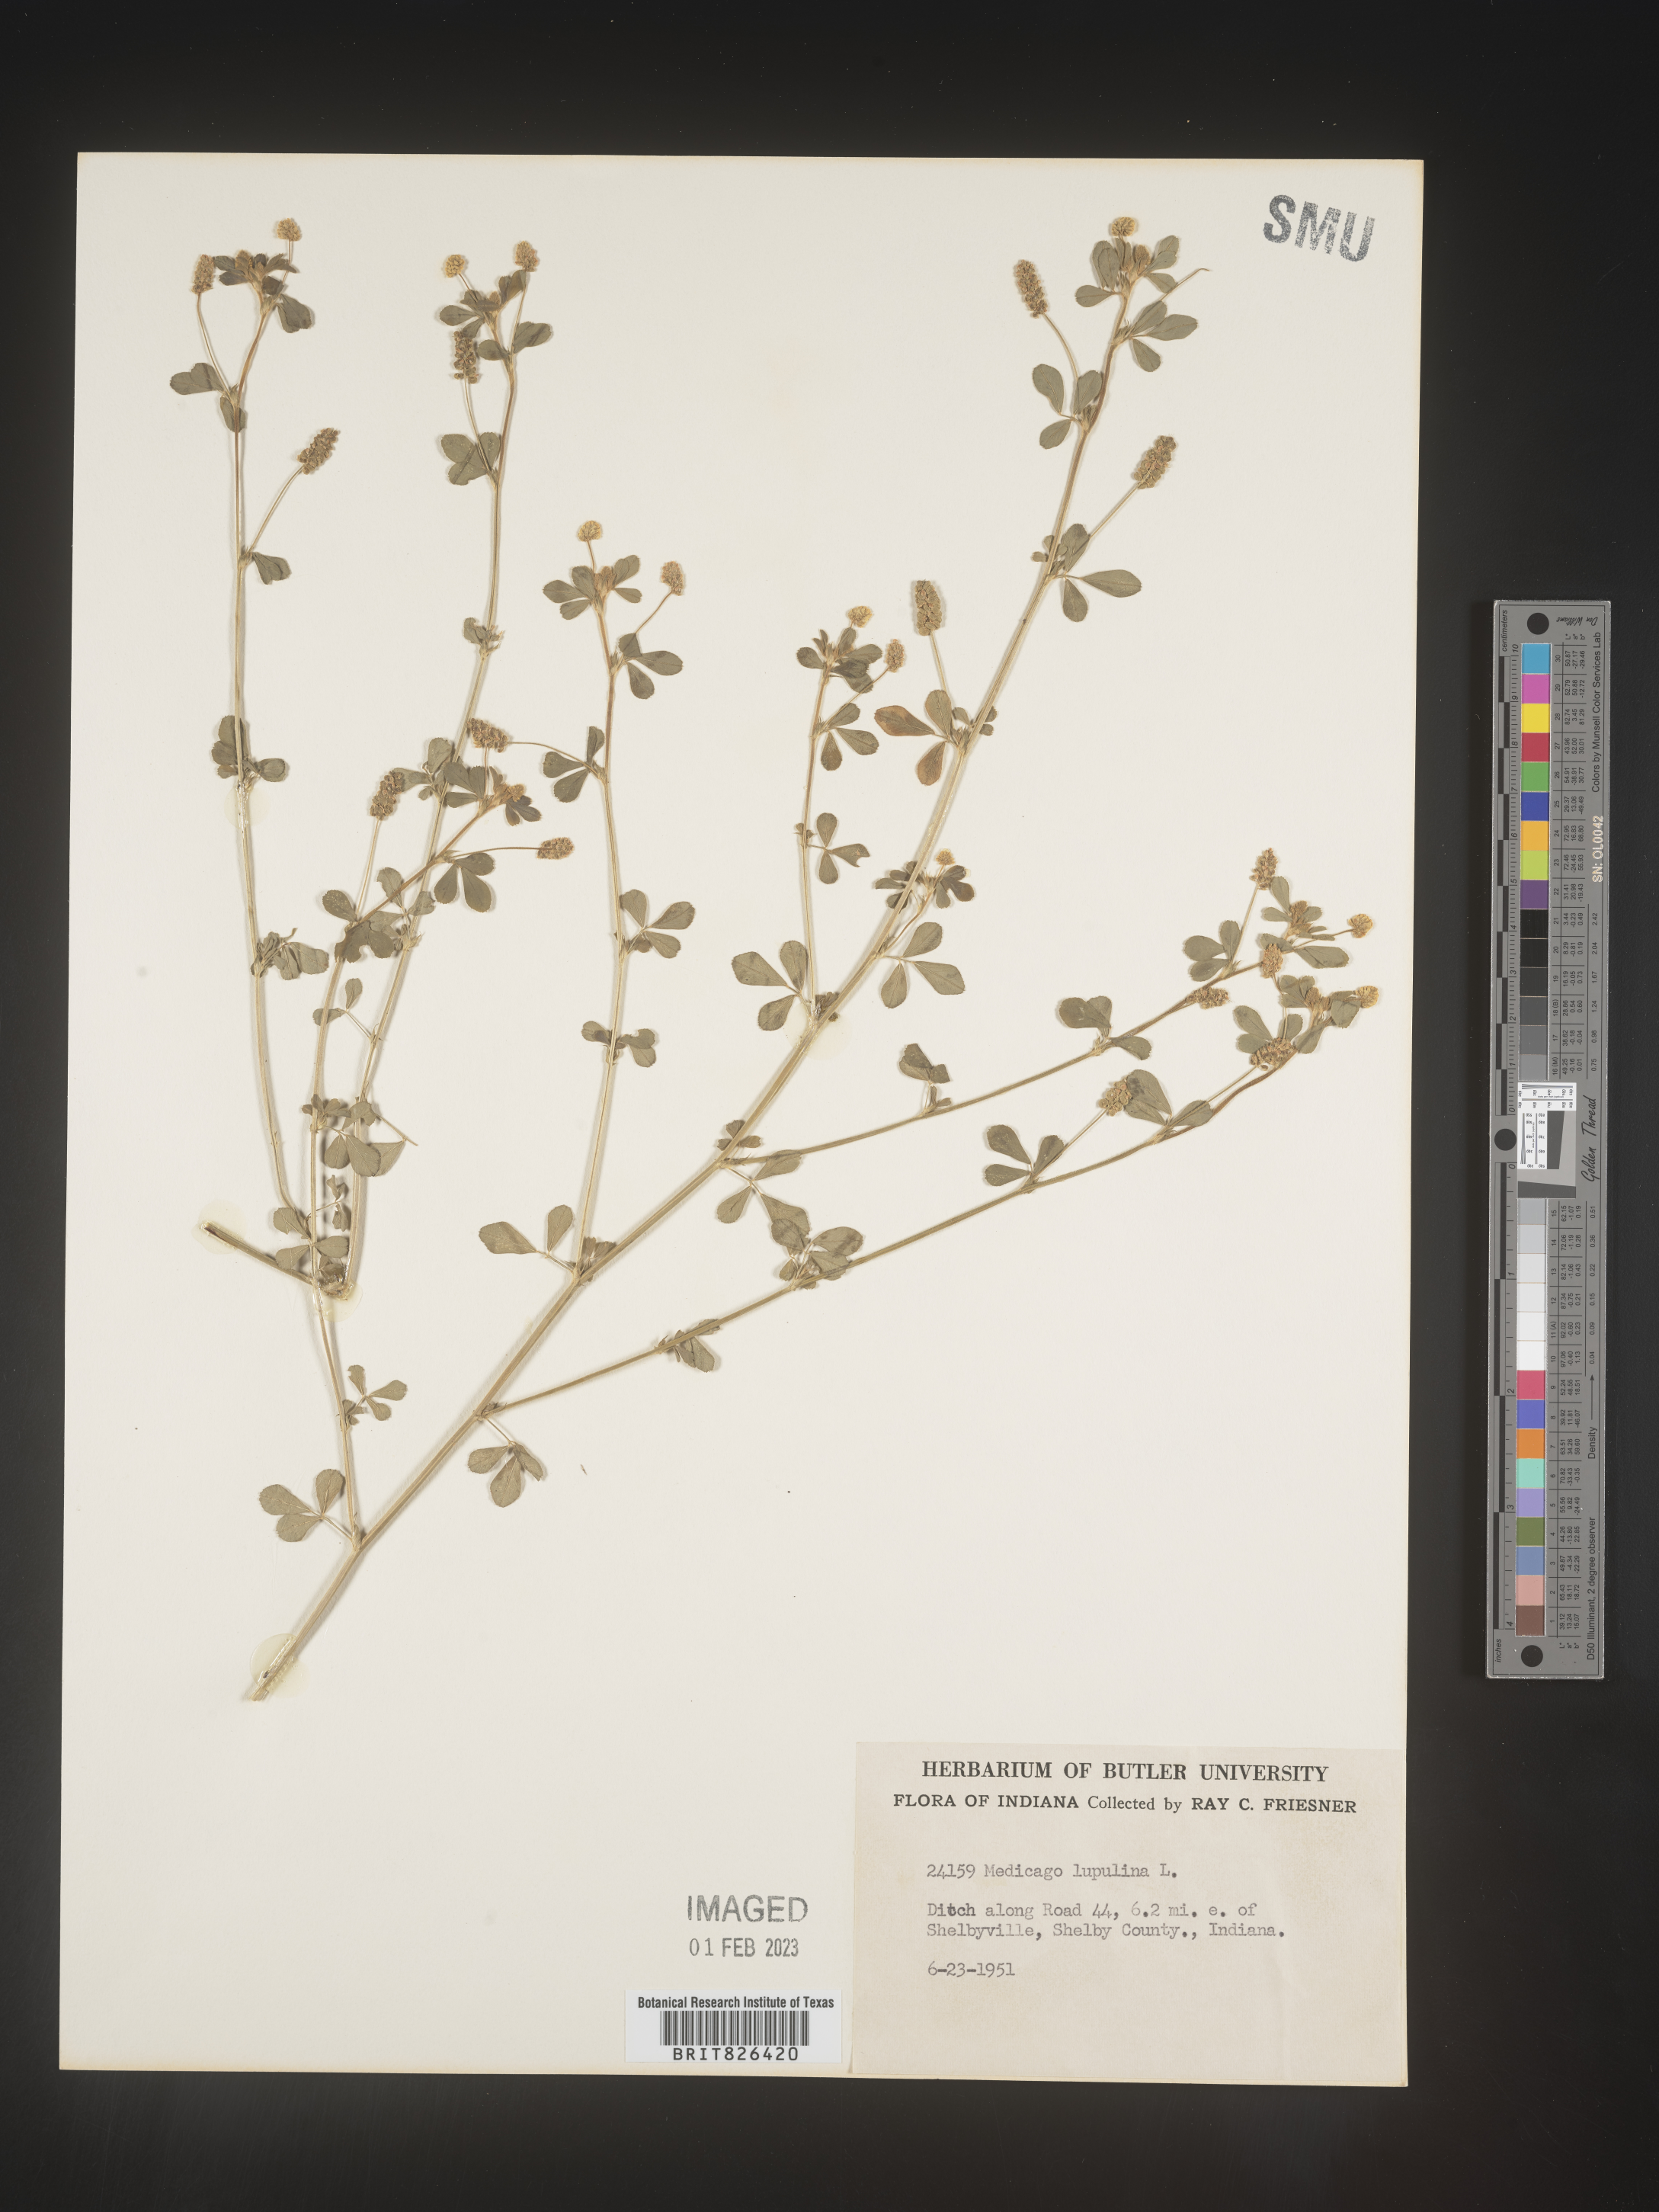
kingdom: Plantae
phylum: Tracheophyta
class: Magnoliopsida
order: Fabales
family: Fabaceae
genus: Medicago
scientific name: Medicago lupulina
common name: Black medick
